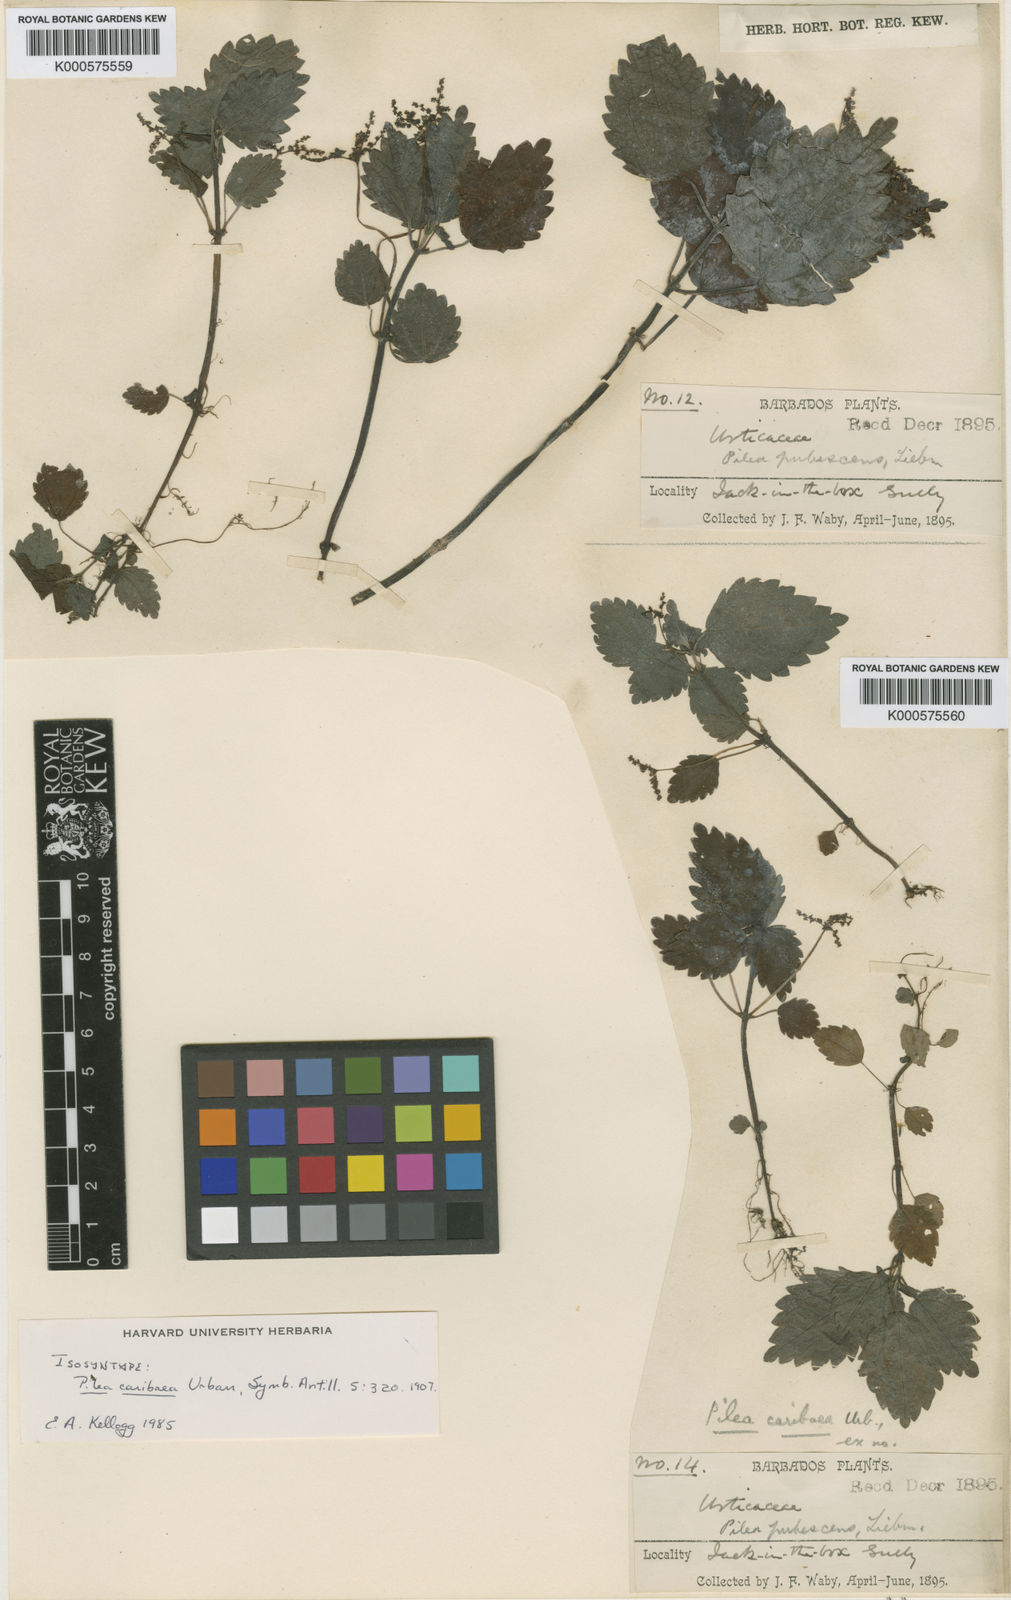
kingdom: Plantae
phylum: Tracheophyta
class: Magnoliopsida
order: Rosales
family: Urticaceae
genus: Pilea
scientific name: Pilea caribaea
